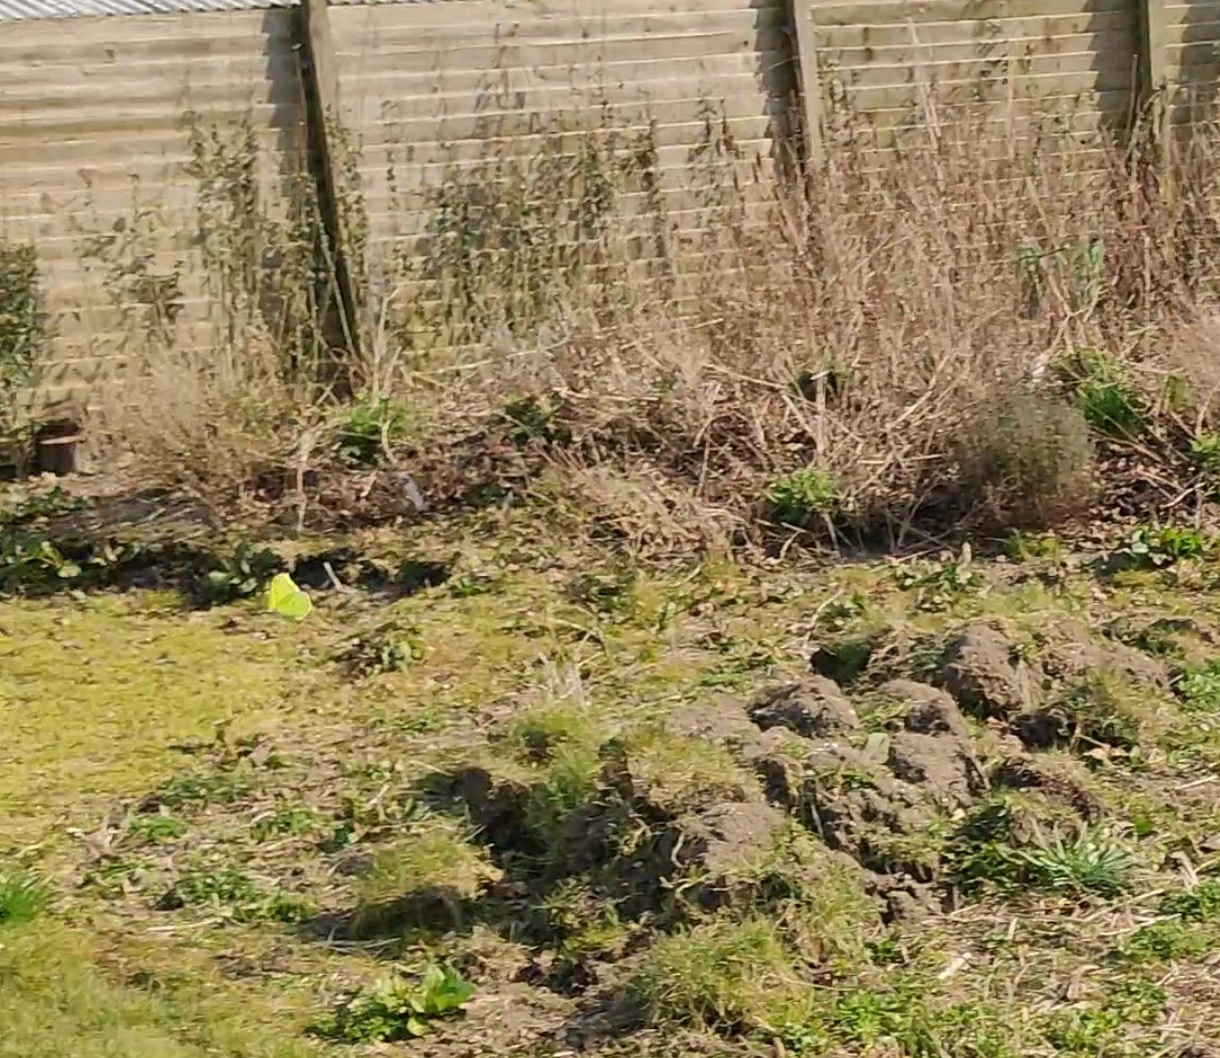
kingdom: Animalia
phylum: Arthropoda
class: Insecta
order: Lepidoptera
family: Pieridae
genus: Gonepteryx
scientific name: Gonepteryx rhamni
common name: Citronsommerfugl
